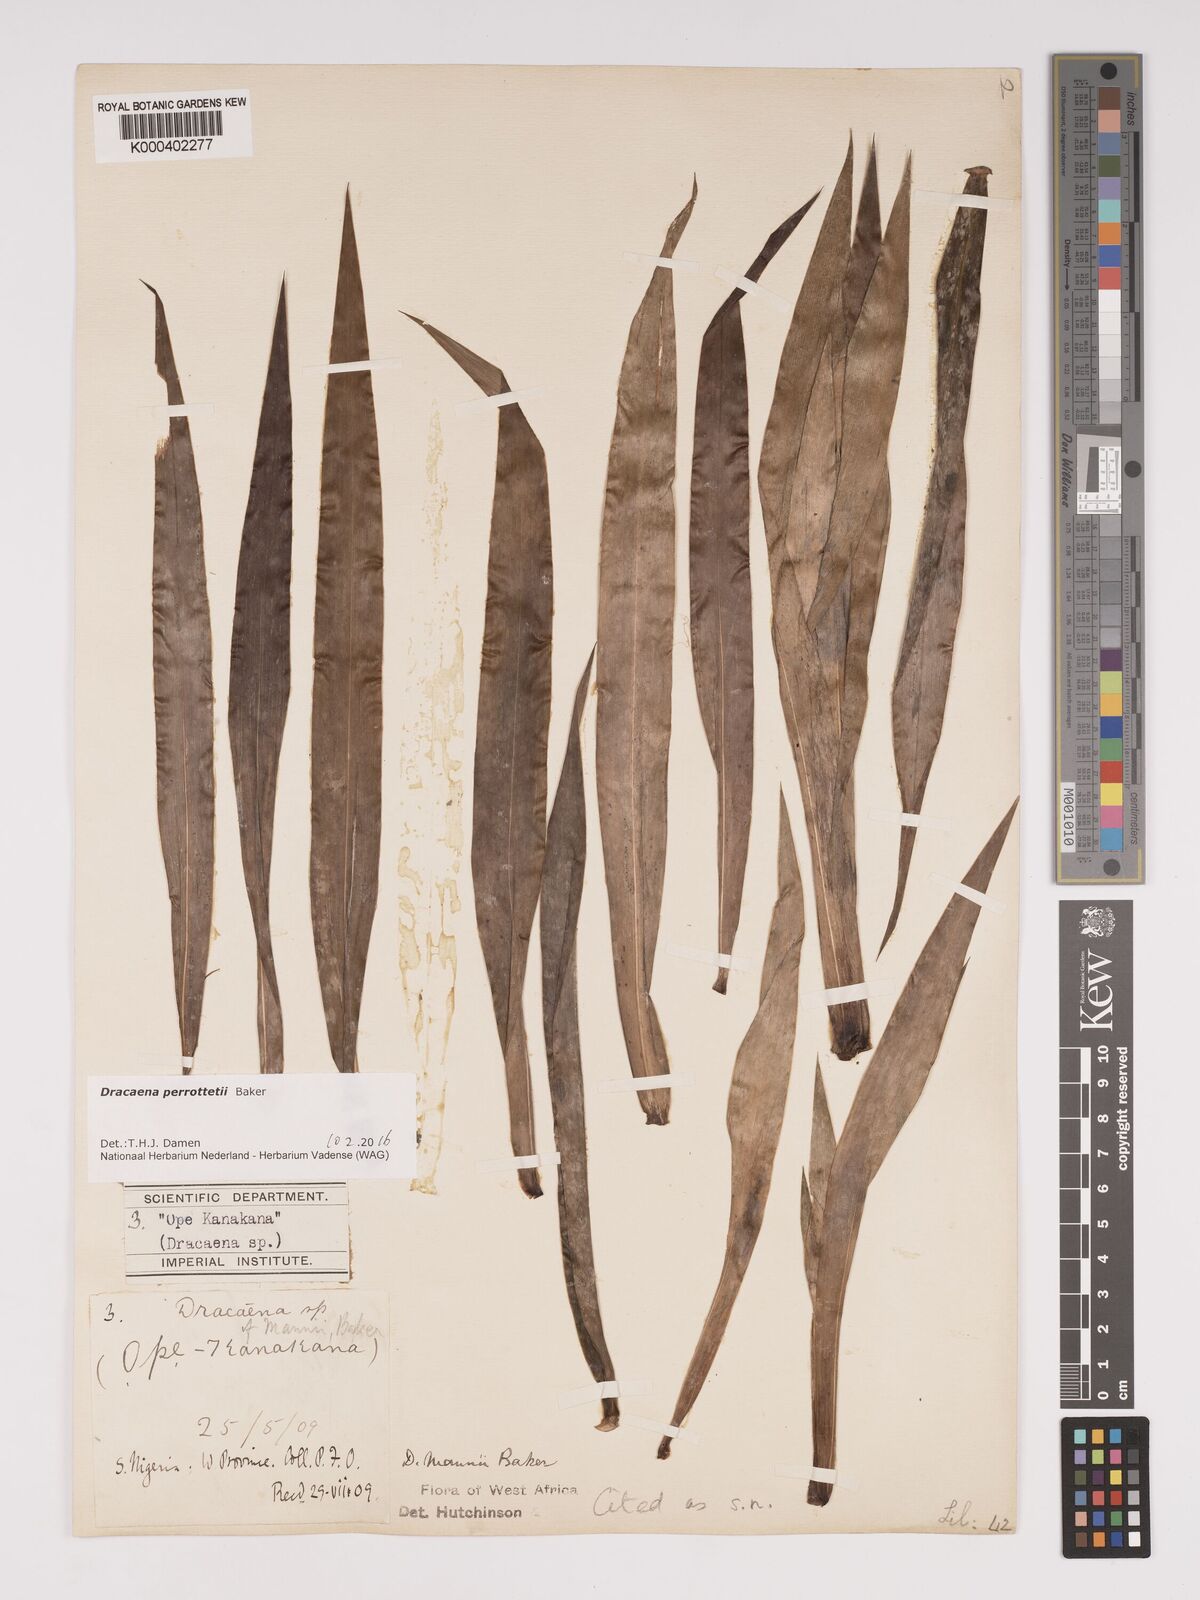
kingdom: Plantae
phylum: Tracheophyta
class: Liliopsida
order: Asparagales
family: Asparagaceae
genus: Dracaena
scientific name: Dracaena perrottetii
